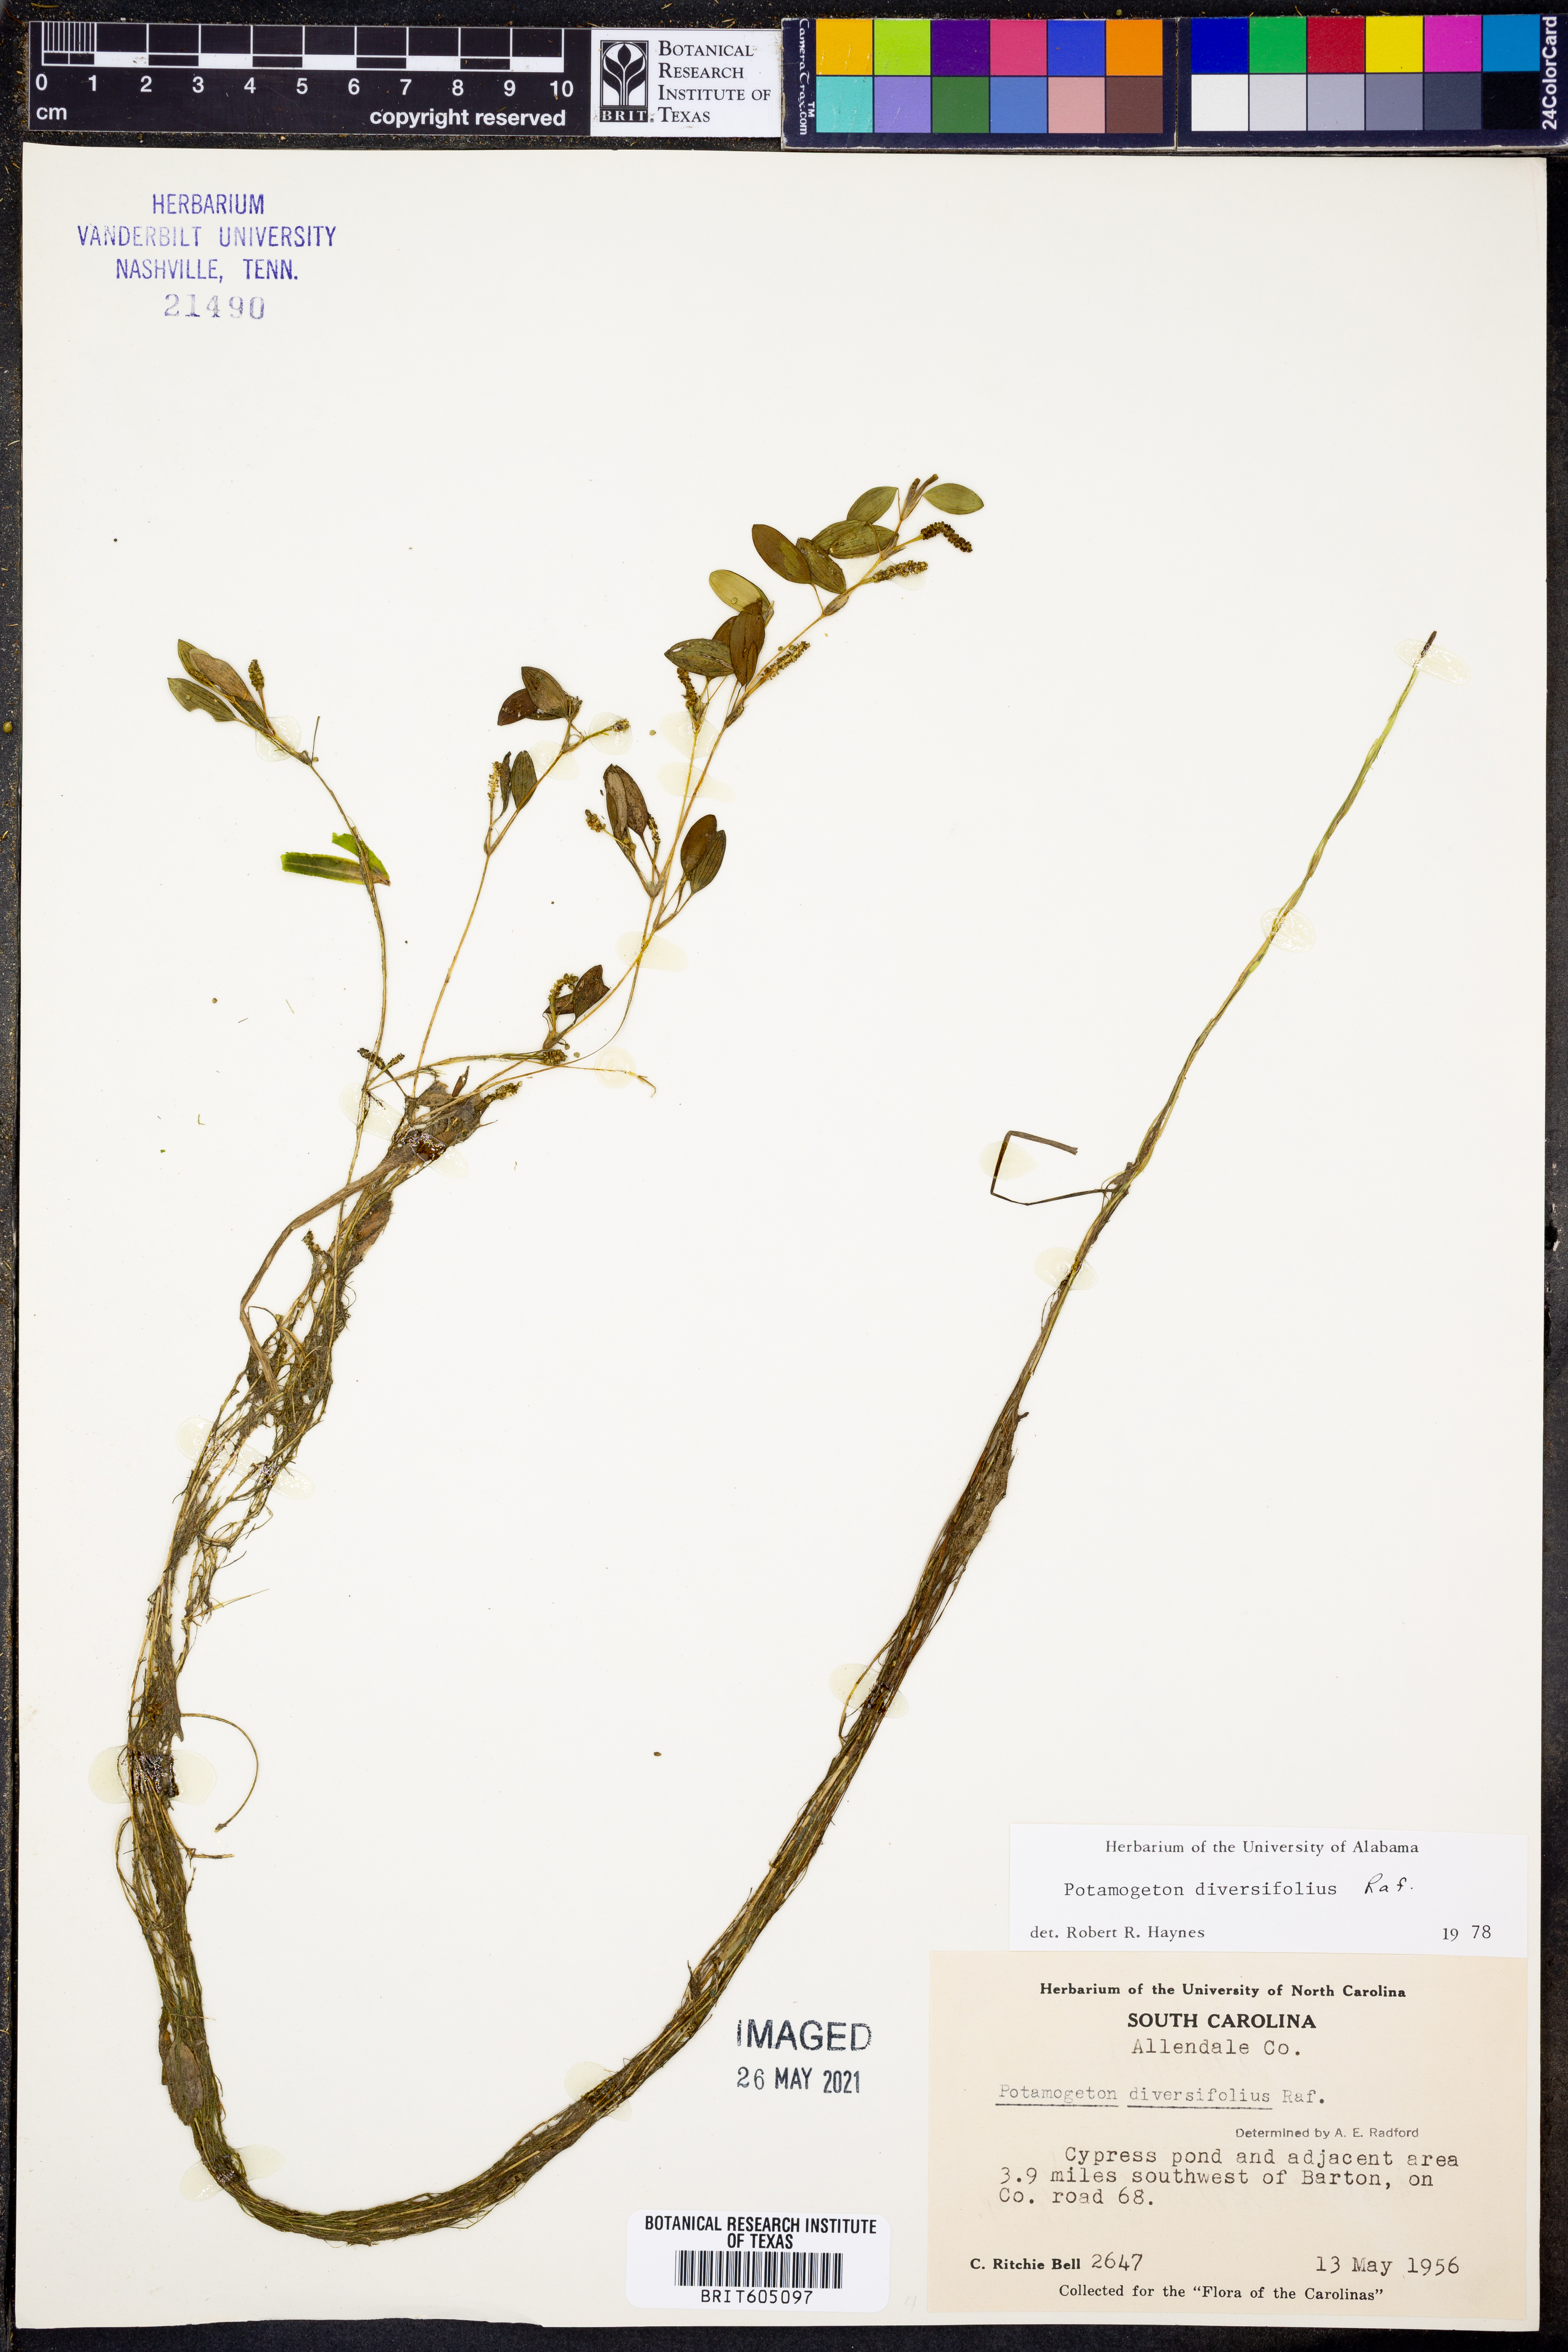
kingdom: Plantae
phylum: Tracheophyta
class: Liliopsida
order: Alismatales
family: Potamogetonaceae
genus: Potamogeton
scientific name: Potamogeton diversifolius
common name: Water-thread pondweed
